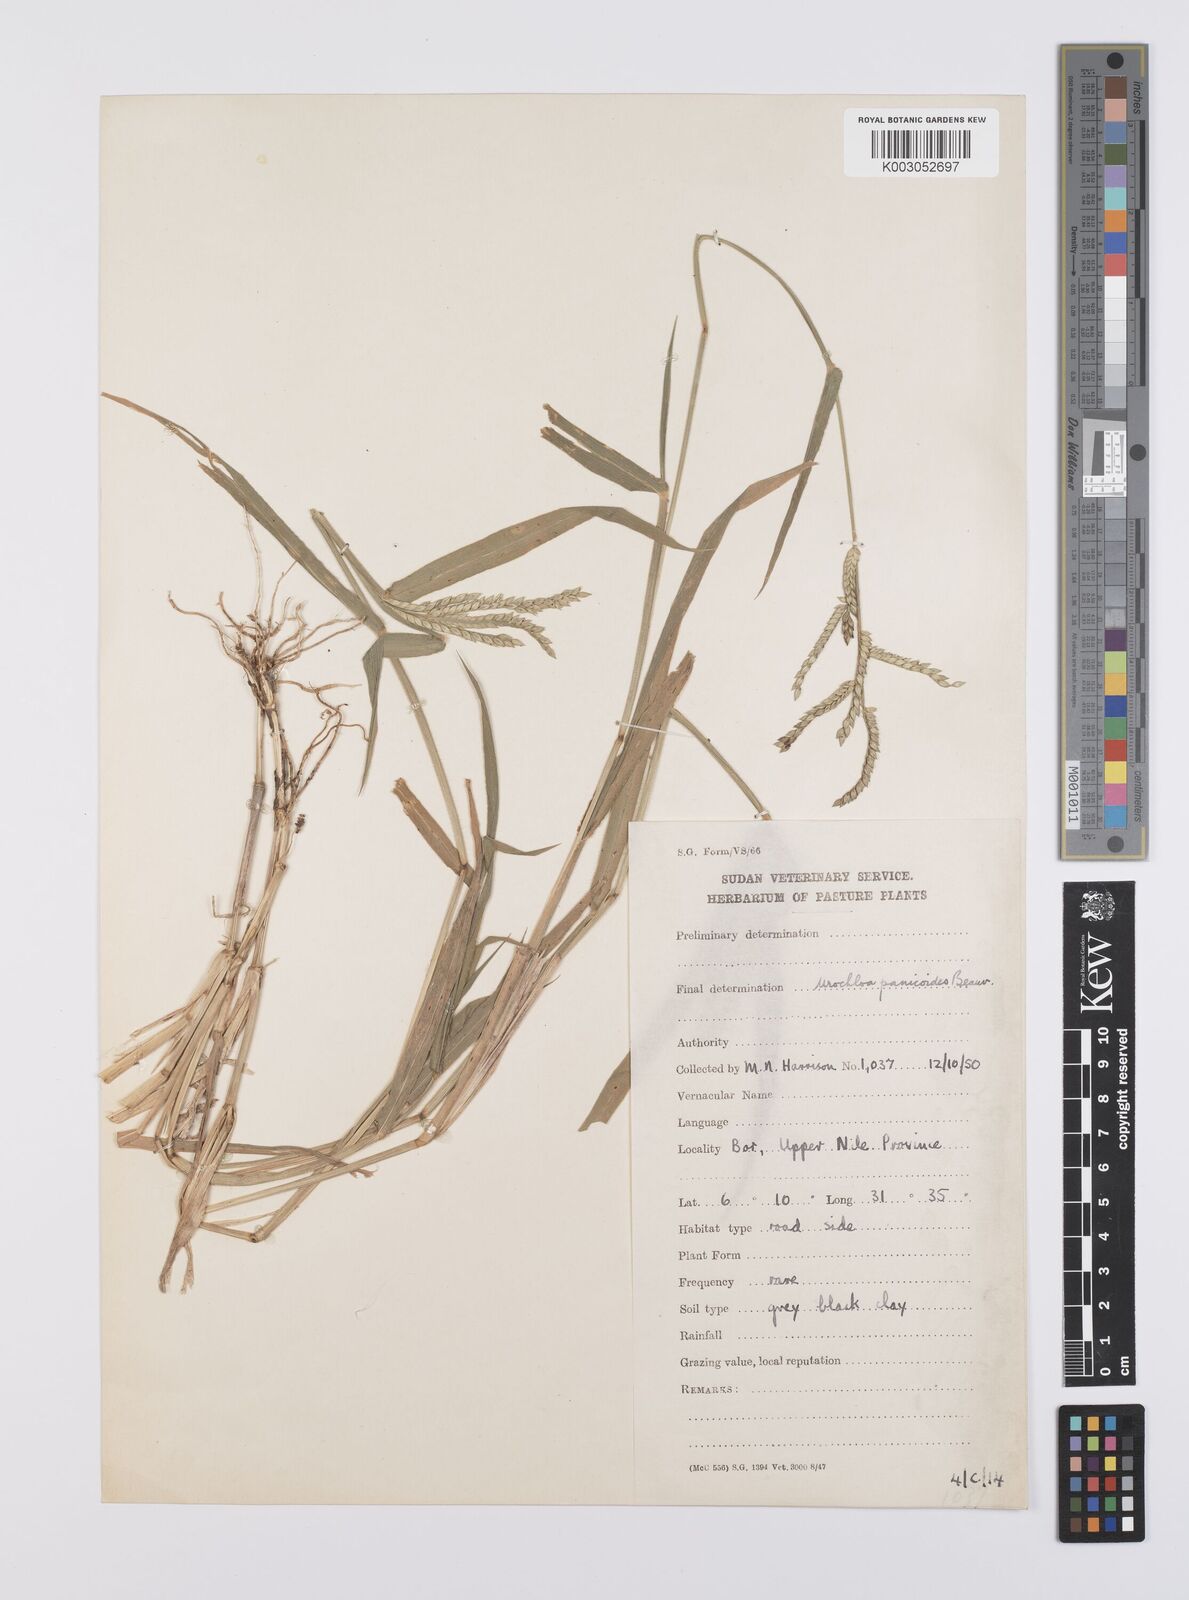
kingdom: Plantae
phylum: Tracheophyta
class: Liliopsida
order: Poales
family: Poaceae
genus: Urochloa
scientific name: Urochloa panicoides
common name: Sharp-flowered signal-grass
